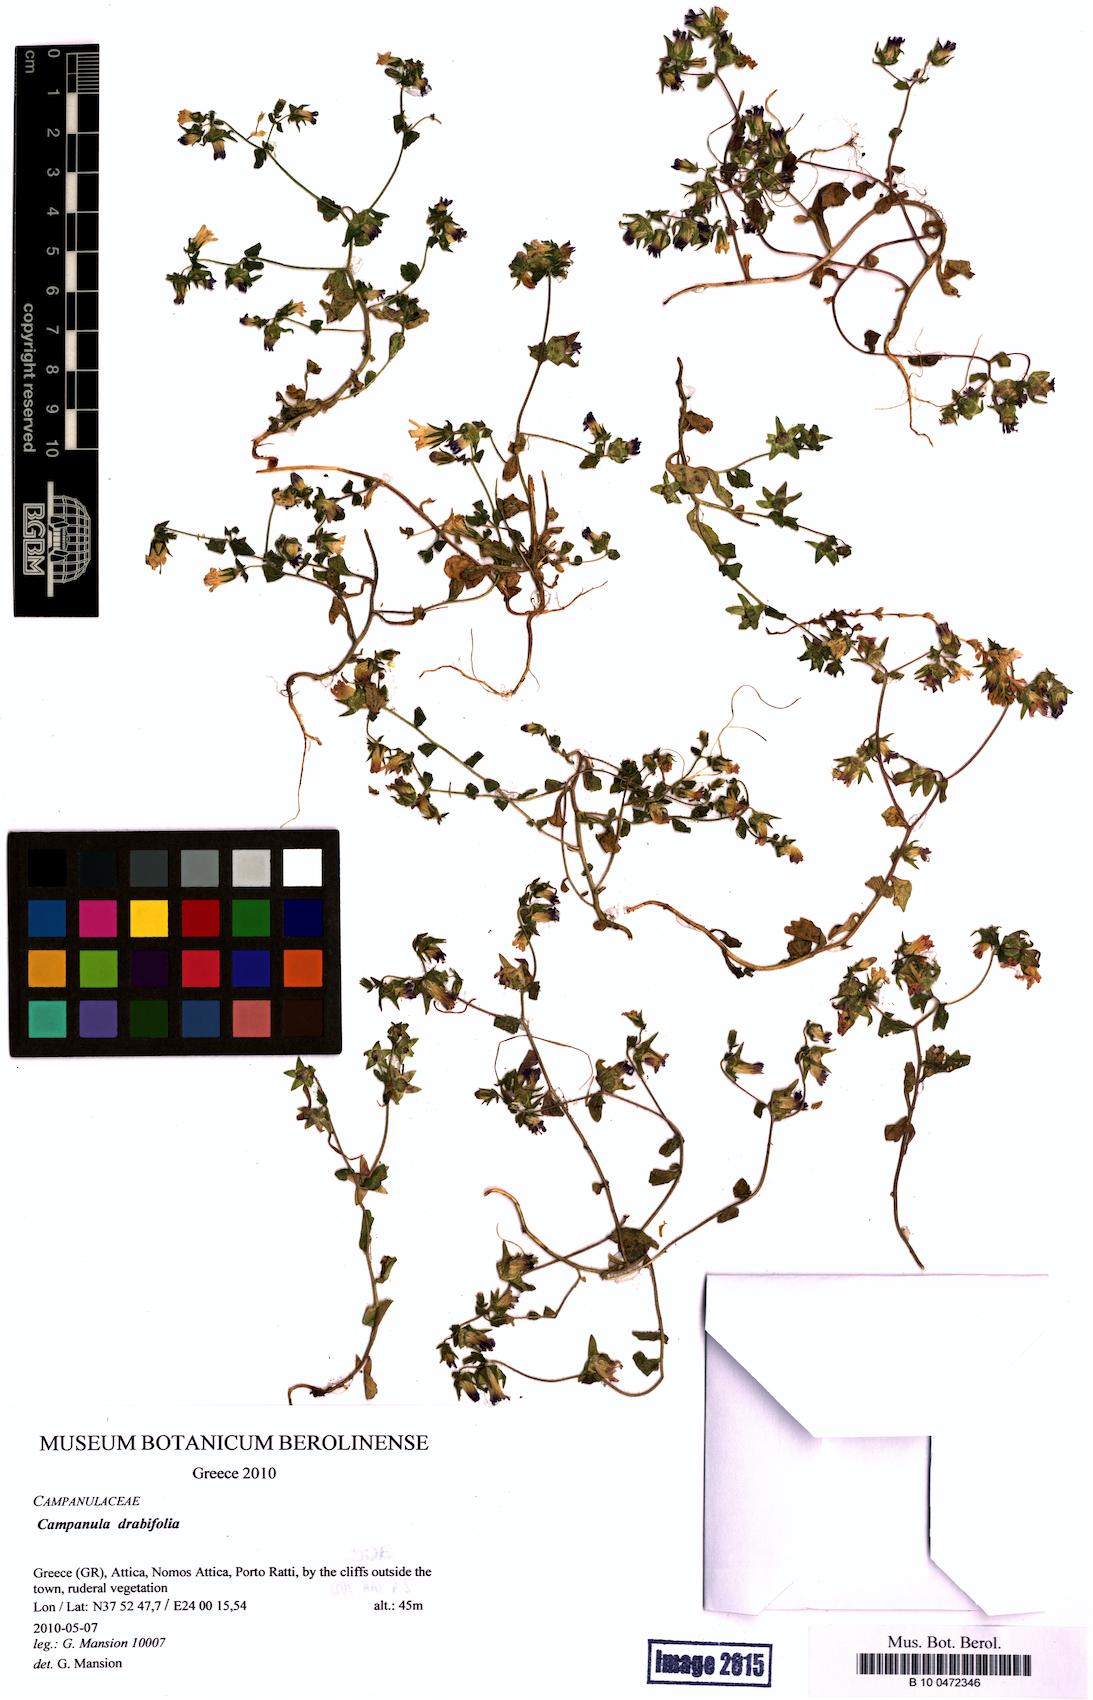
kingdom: Plantae
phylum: Tracheophyta
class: Magnoliopsida
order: Asterales
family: Campanulaceae
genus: Campanula
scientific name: Campanula drabifolia
